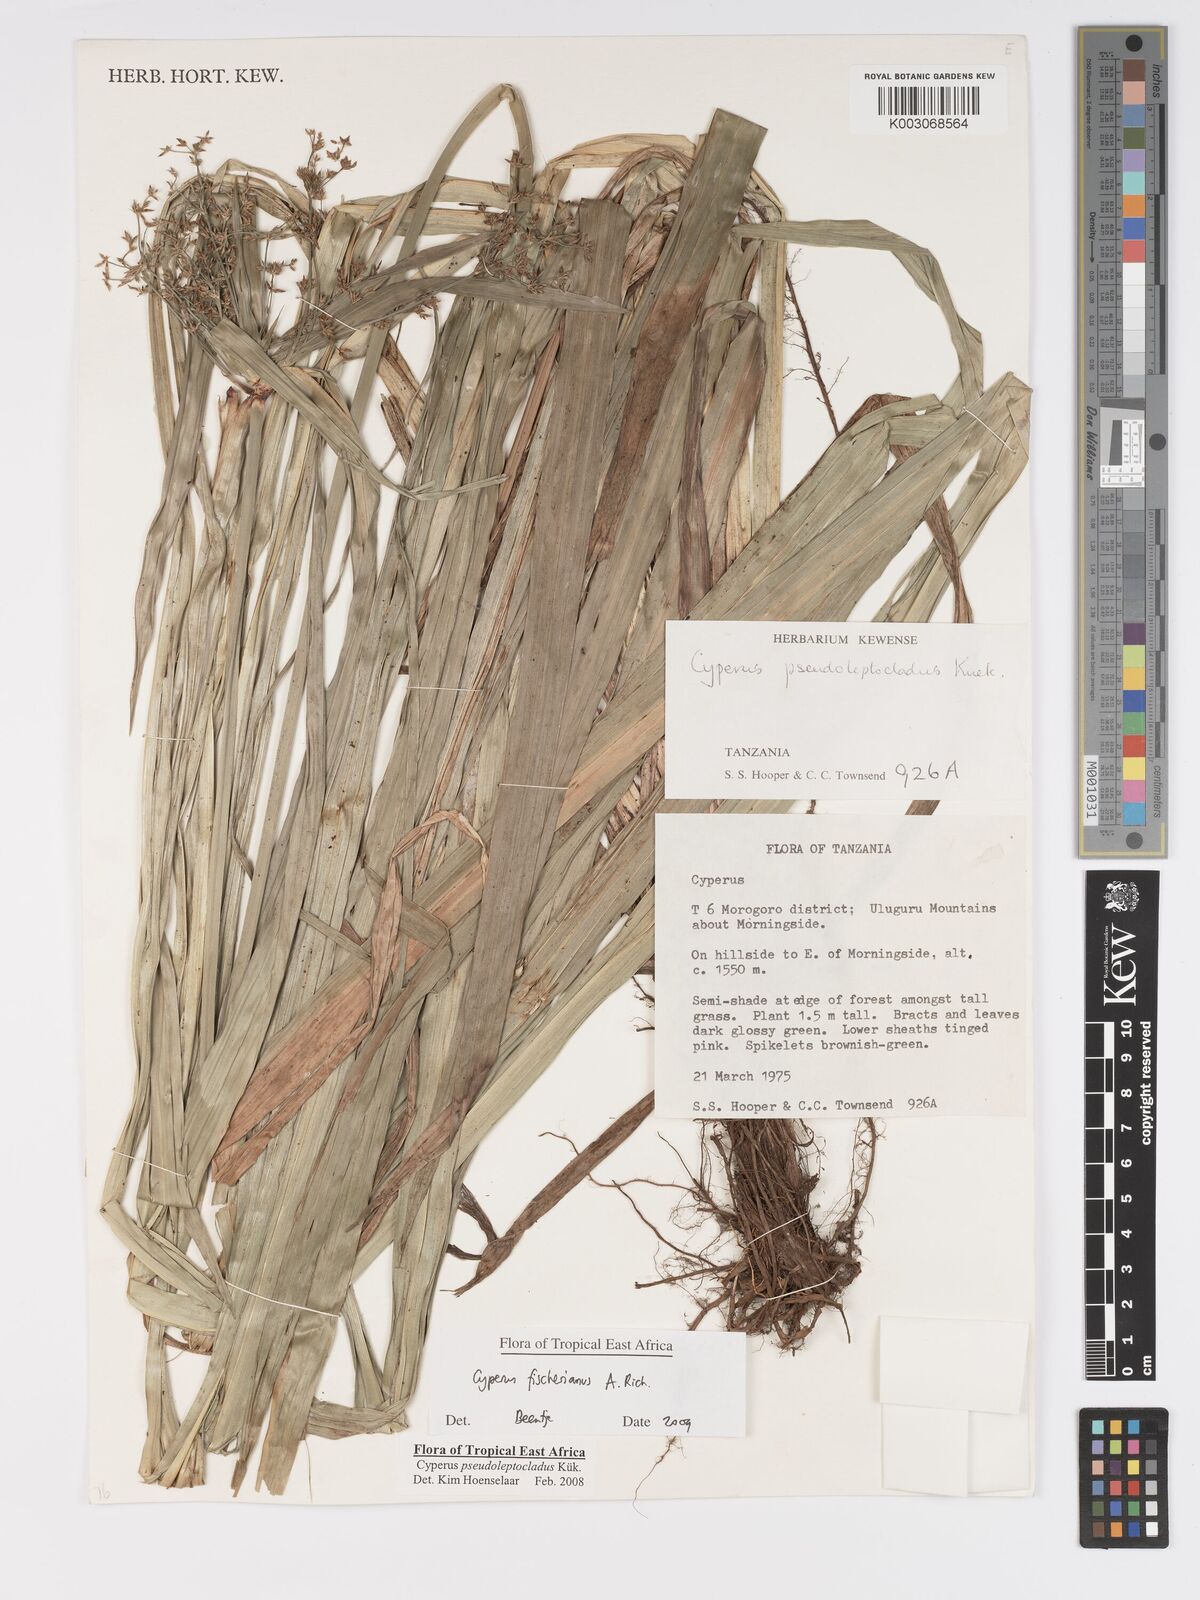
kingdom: Plantae
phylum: Tracheophyta
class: Liliopsida
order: Poales
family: Cyperaceae
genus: Cyperus
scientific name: Cyperus fischerianus
